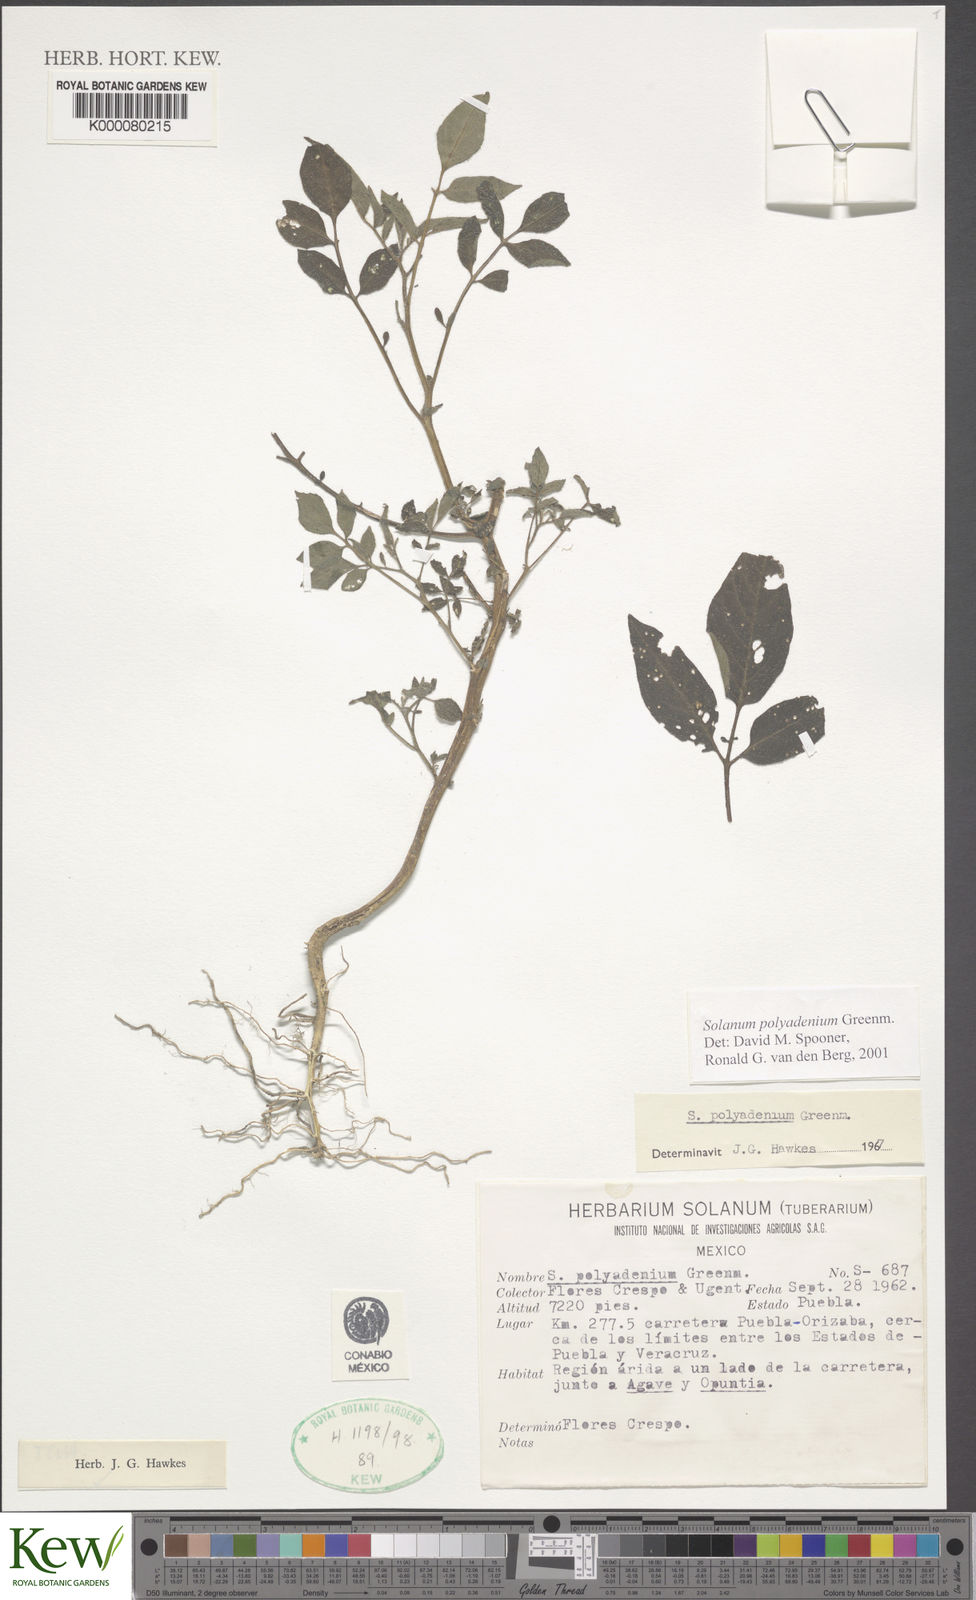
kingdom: Plantae
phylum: Tracheophyta
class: Magnoliopsida
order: Solanales
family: Solanaceae
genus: Solanum
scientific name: Solanum polyadenium
